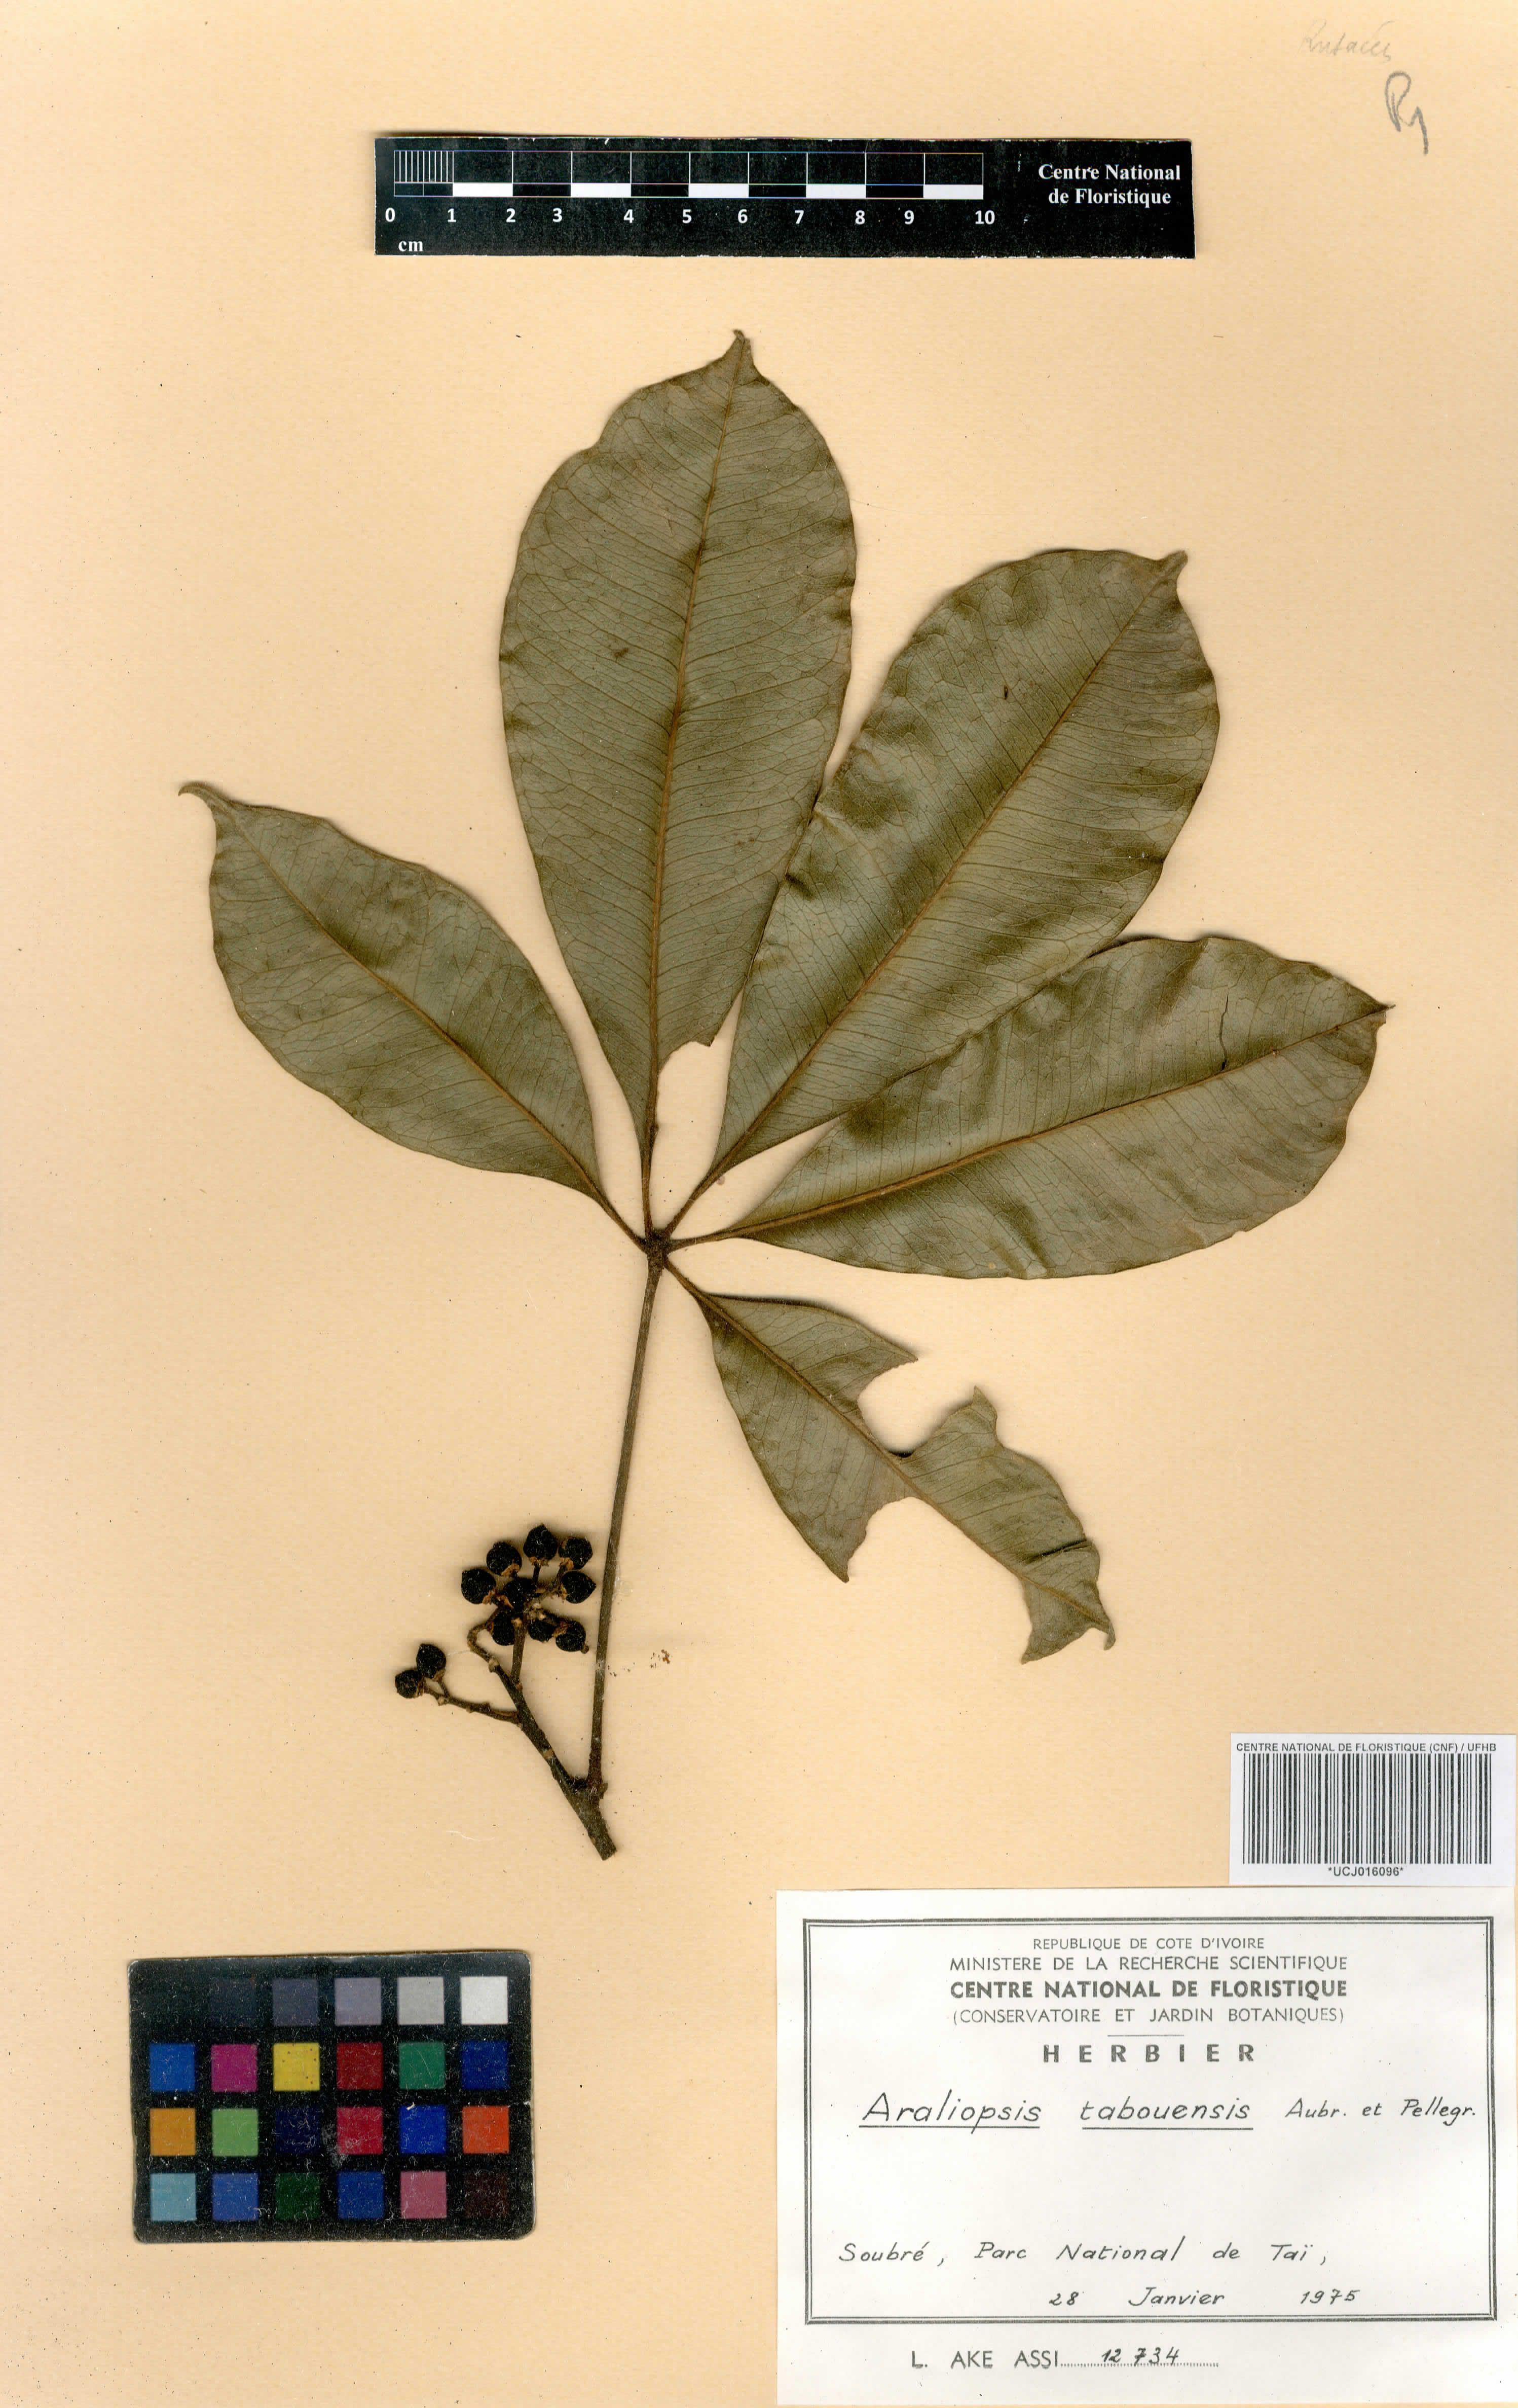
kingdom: Plantae
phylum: Tracheophyta
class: Magnoliopsida
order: Sapindales
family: Rutaceae
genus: Vepris
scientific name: Vepris tabouensis
